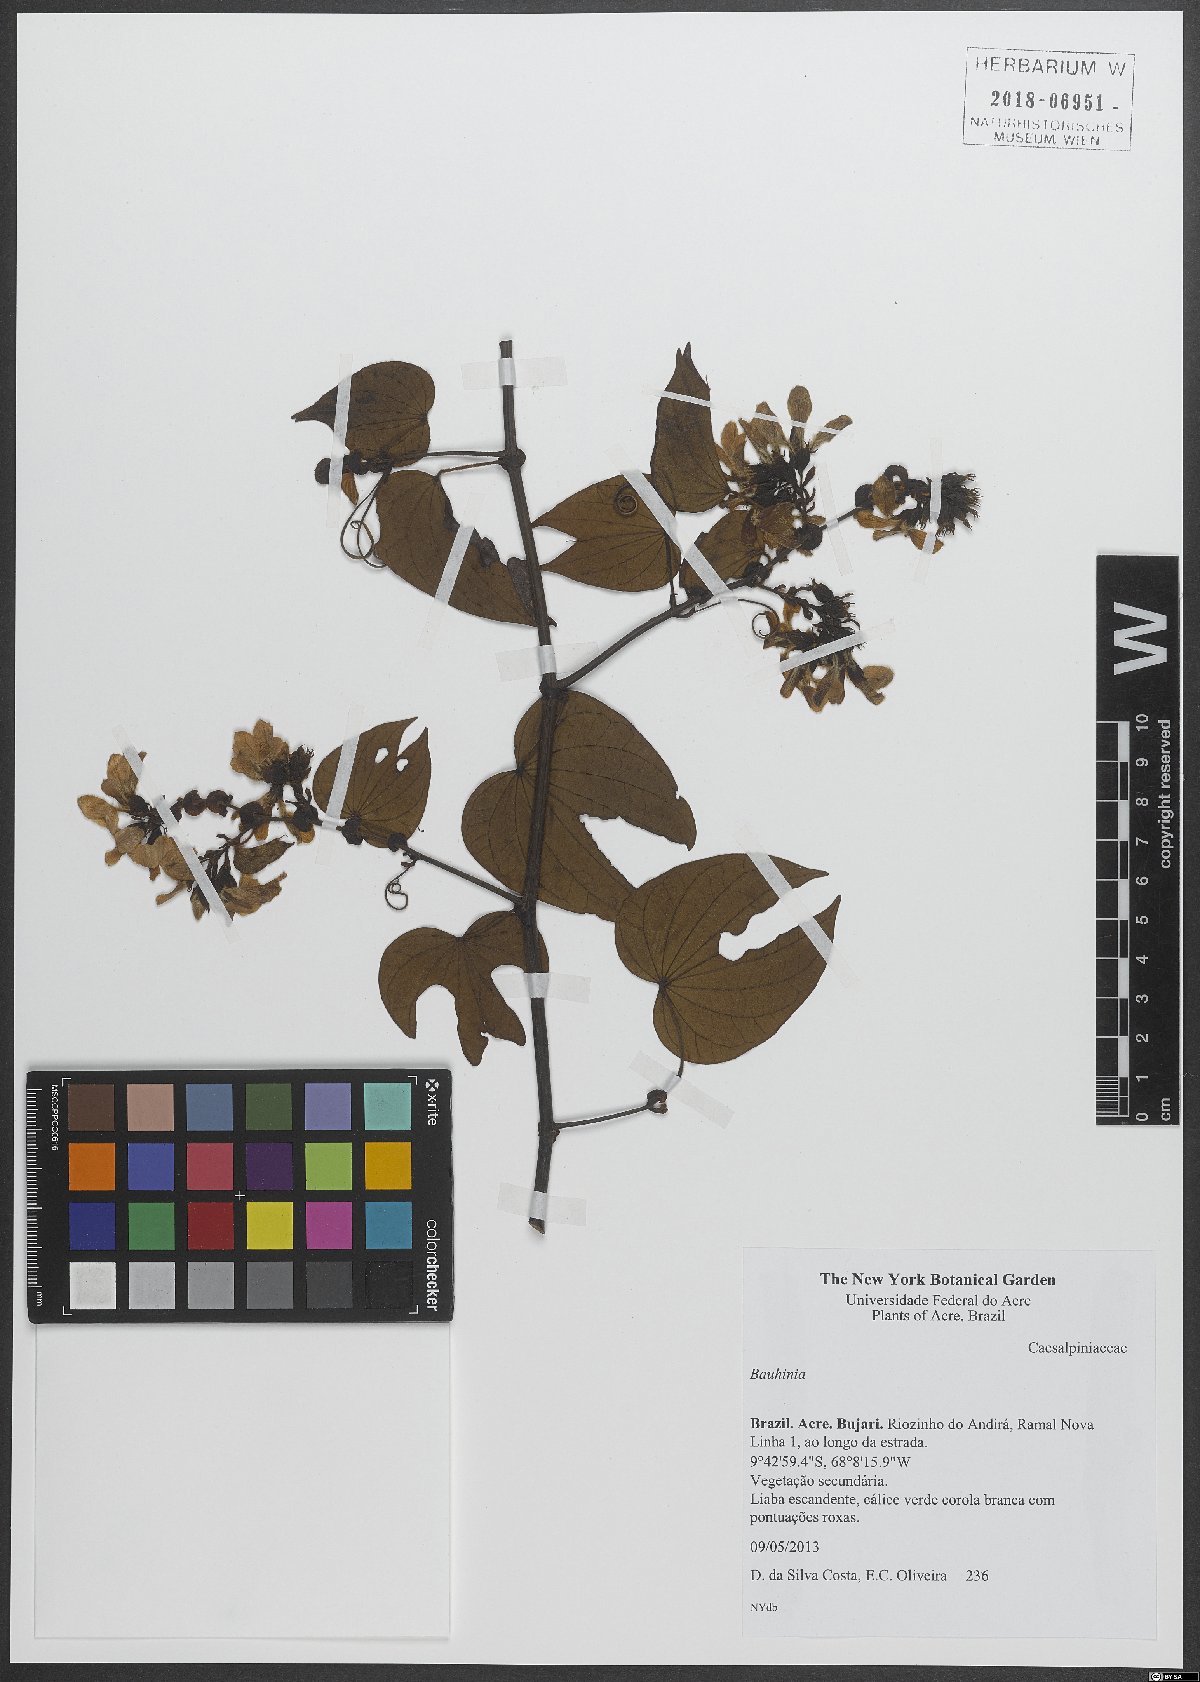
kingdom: Plantae
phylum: Tracheophyta
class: Magnoliopsida
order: Fabales
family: Fabaceae
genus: Bauhinia
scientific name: Bauhinia
